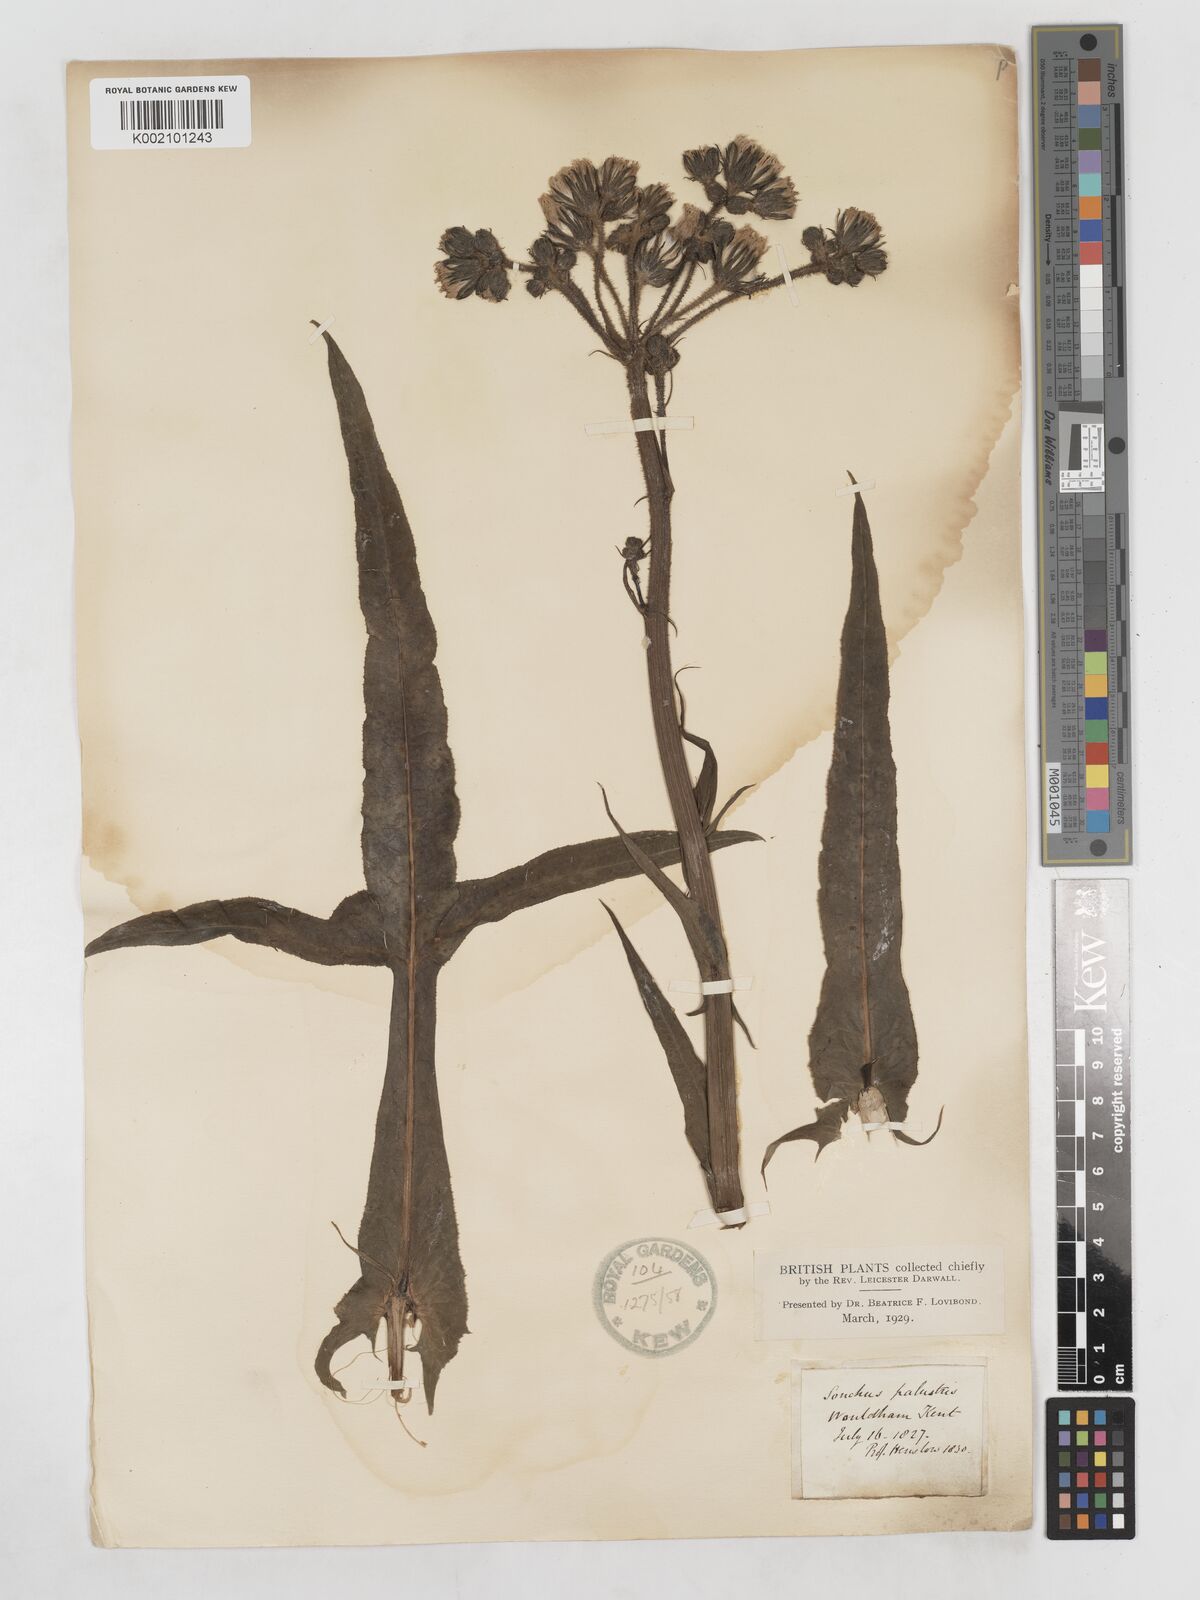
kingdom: Plantae
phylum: Tracheophyta
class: Magnoliopsida
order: Asterales
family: Asteraceae
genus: Sonchus
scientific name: Sonchus palustris
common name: Marsh sow-thistle
